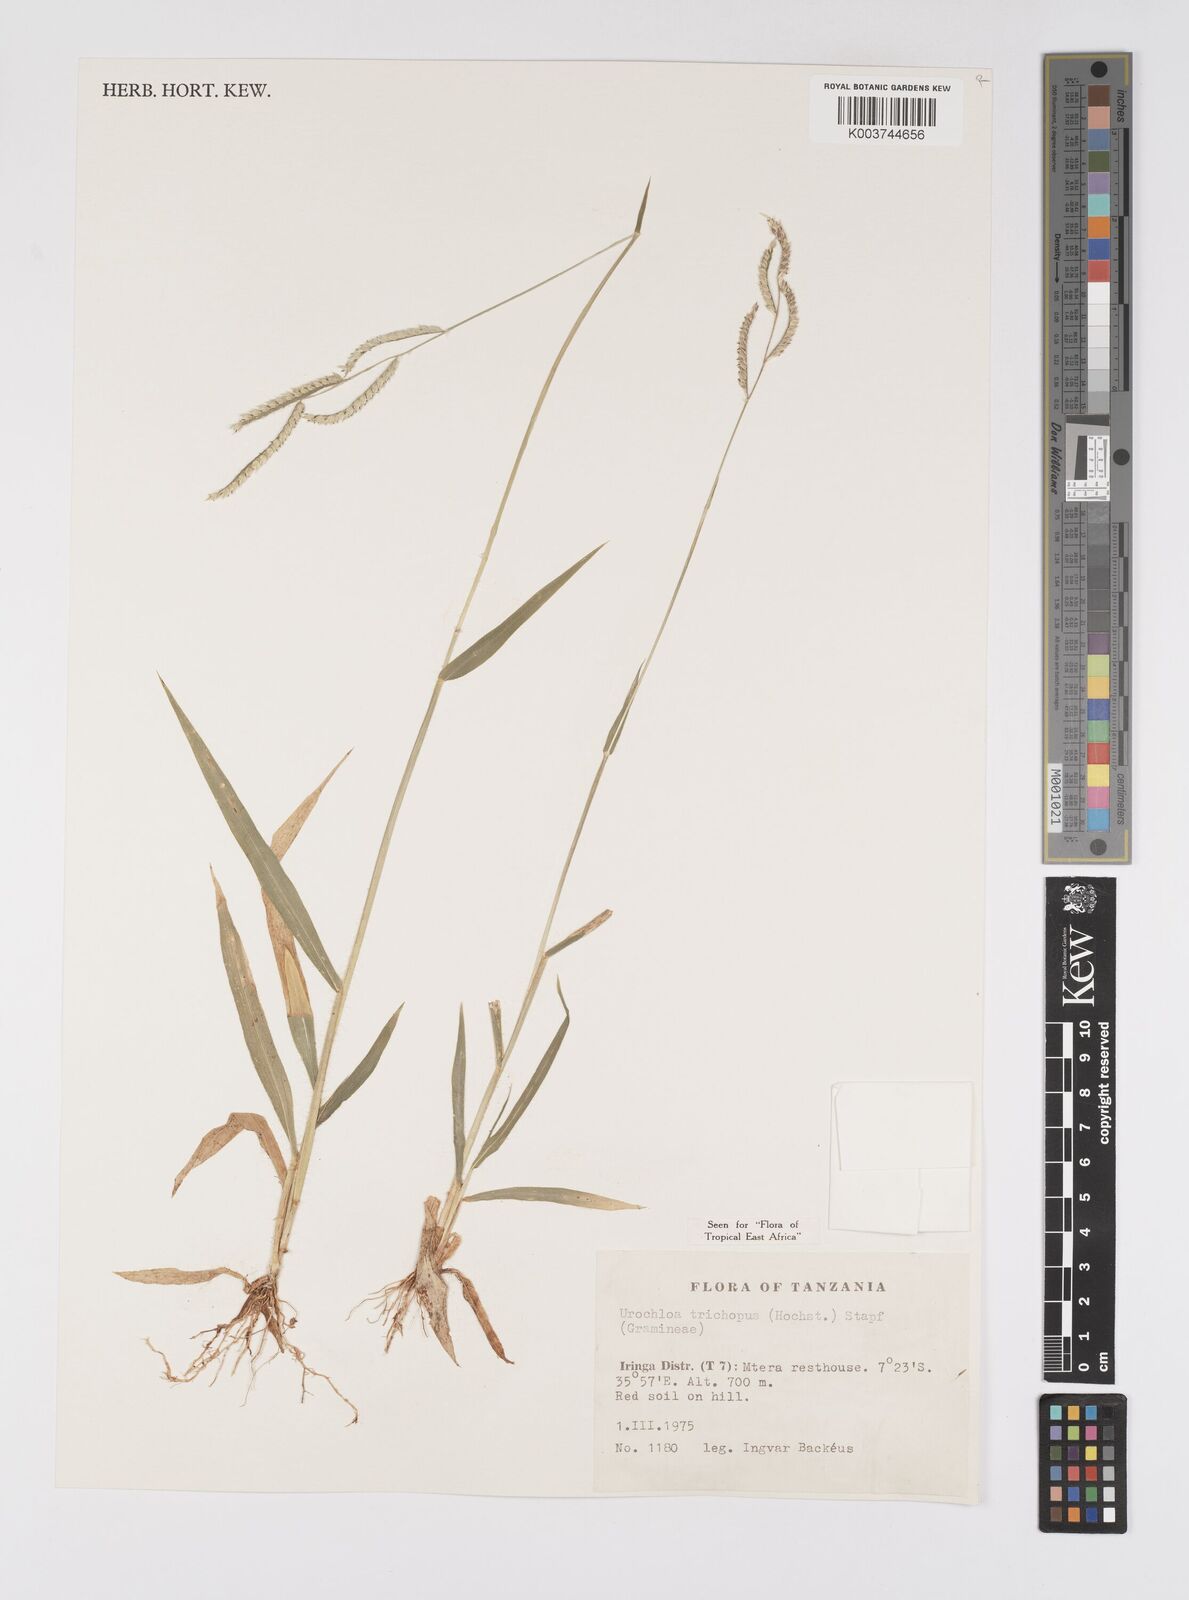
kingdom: Plantae
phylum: Tracheophyta
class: Liliopsida
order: Poales
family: Poaceae
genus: Urochloa
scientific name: Urochloa trichopus
